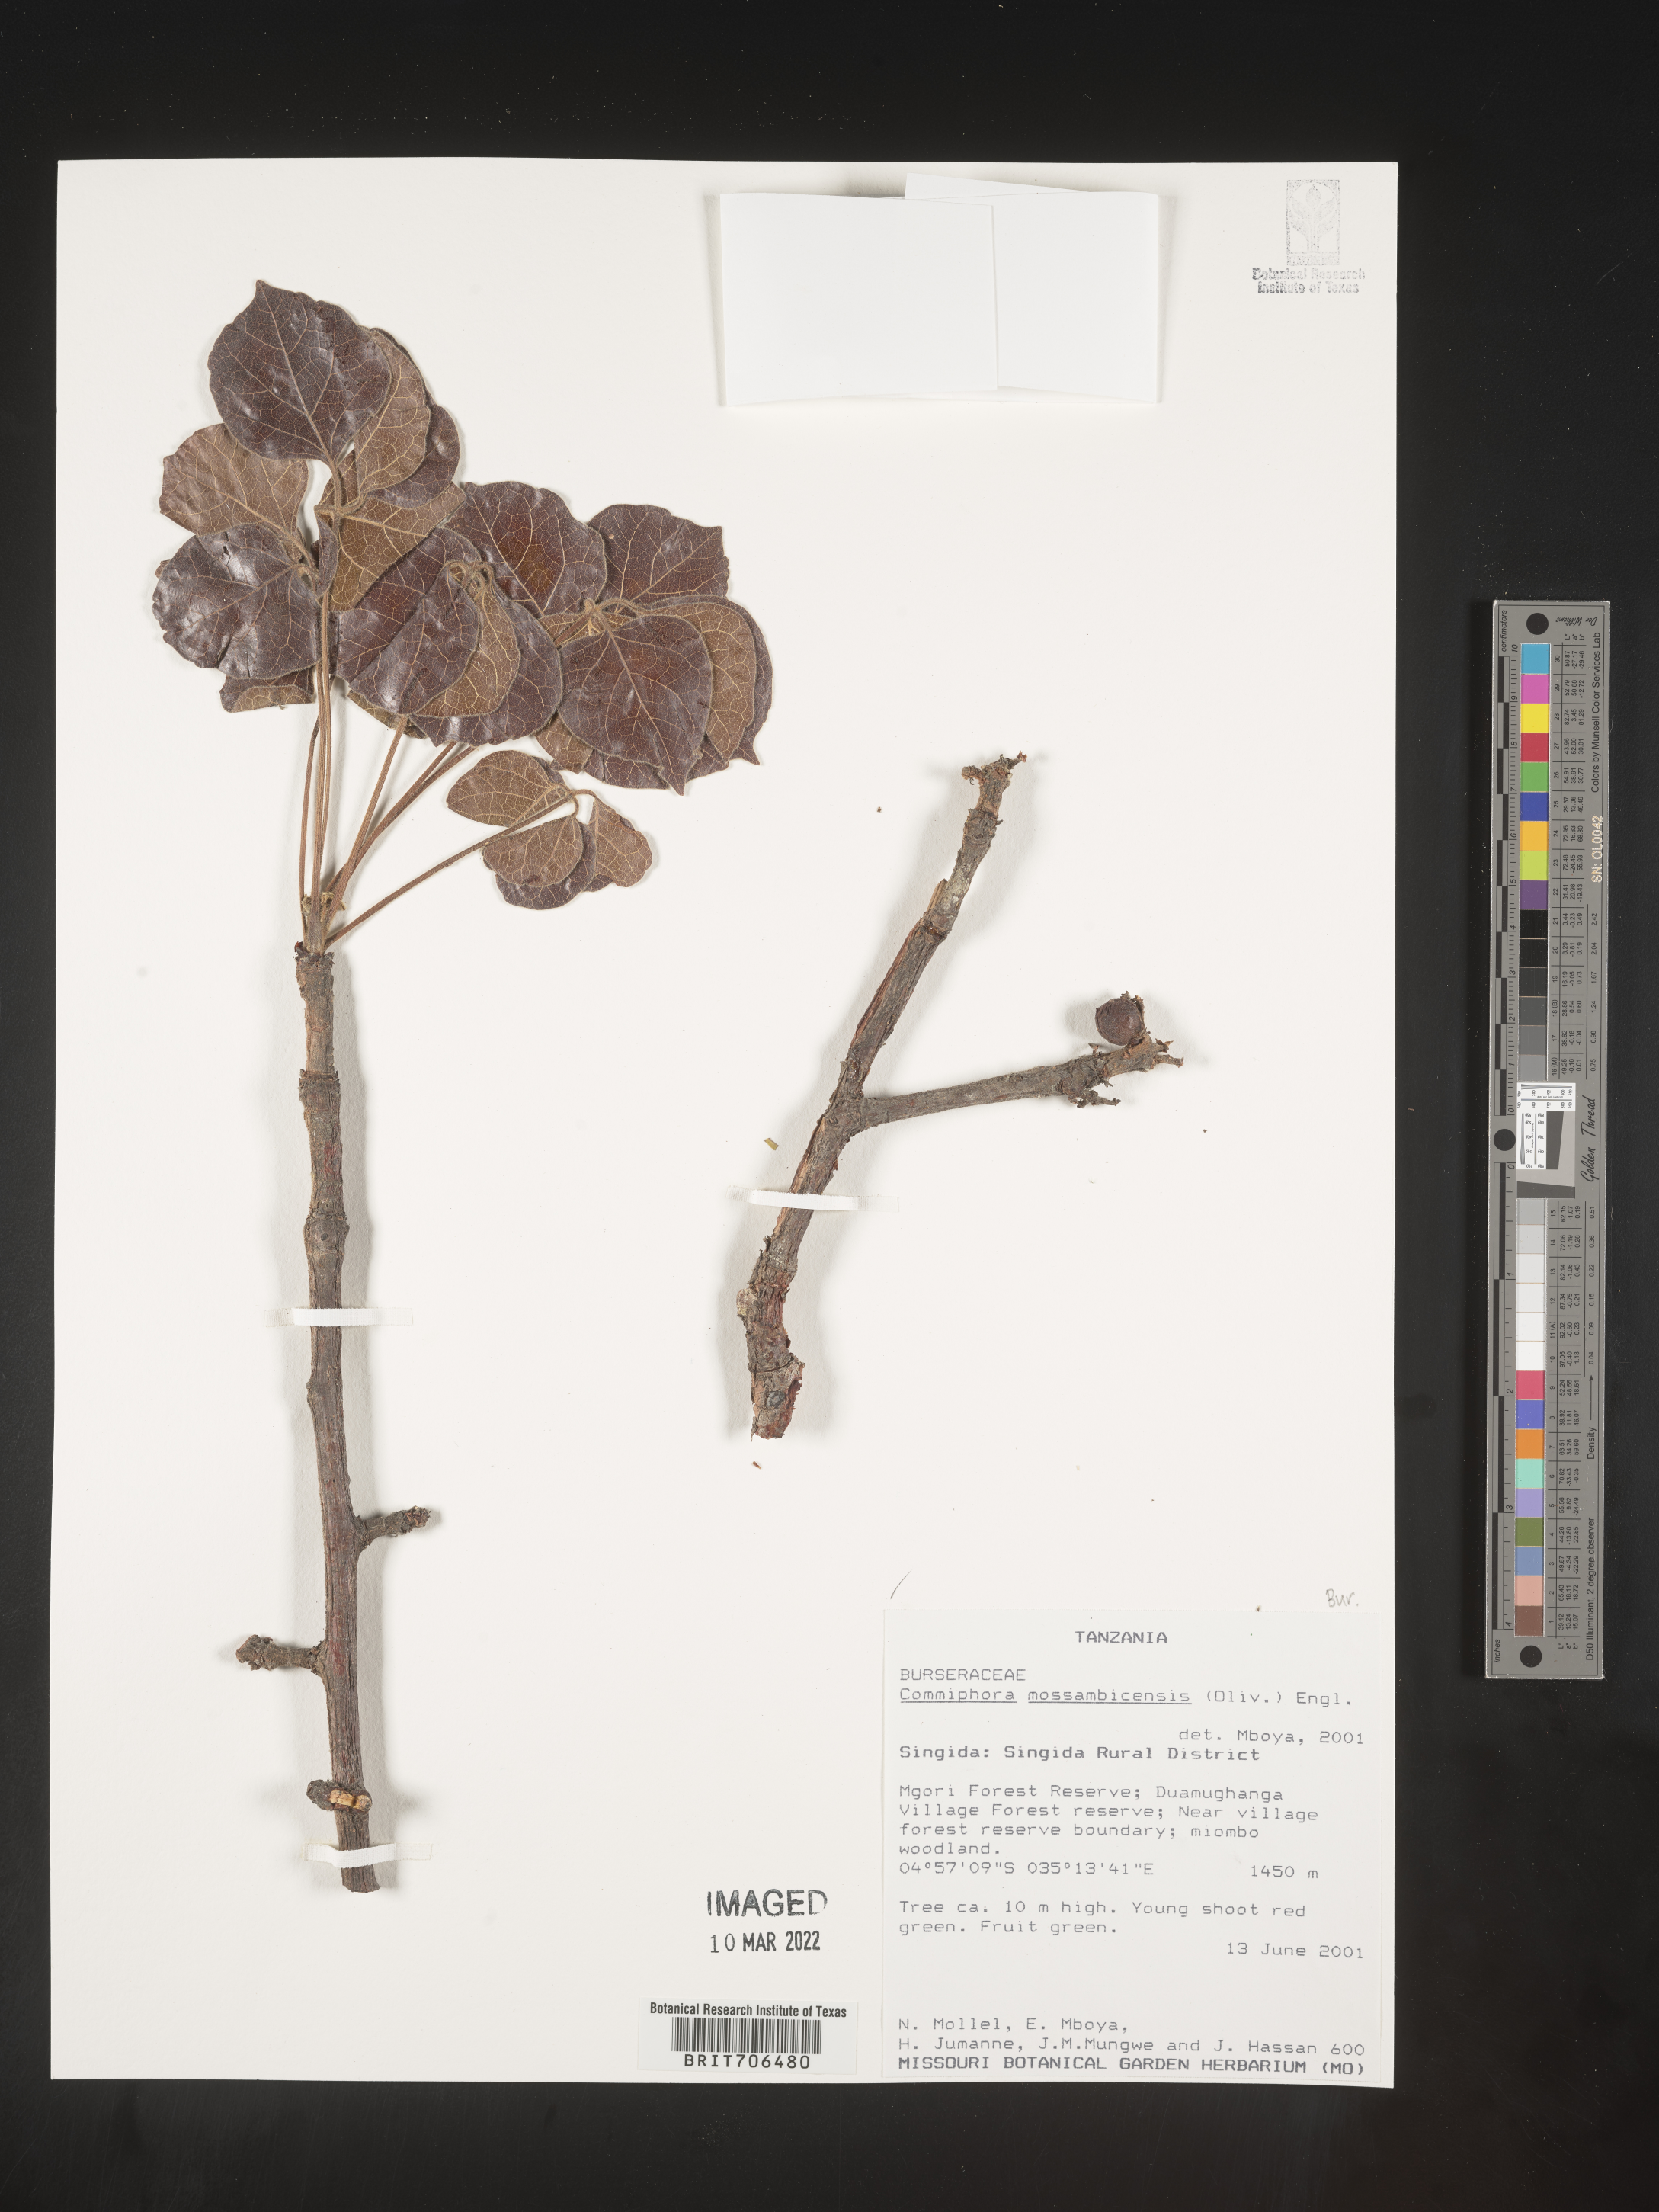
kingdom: Plantae
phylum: Tracheophyta
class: Magnoliopsida
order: Sapindales
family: Burseraceae
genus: Commiphora
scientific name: Commiphora
